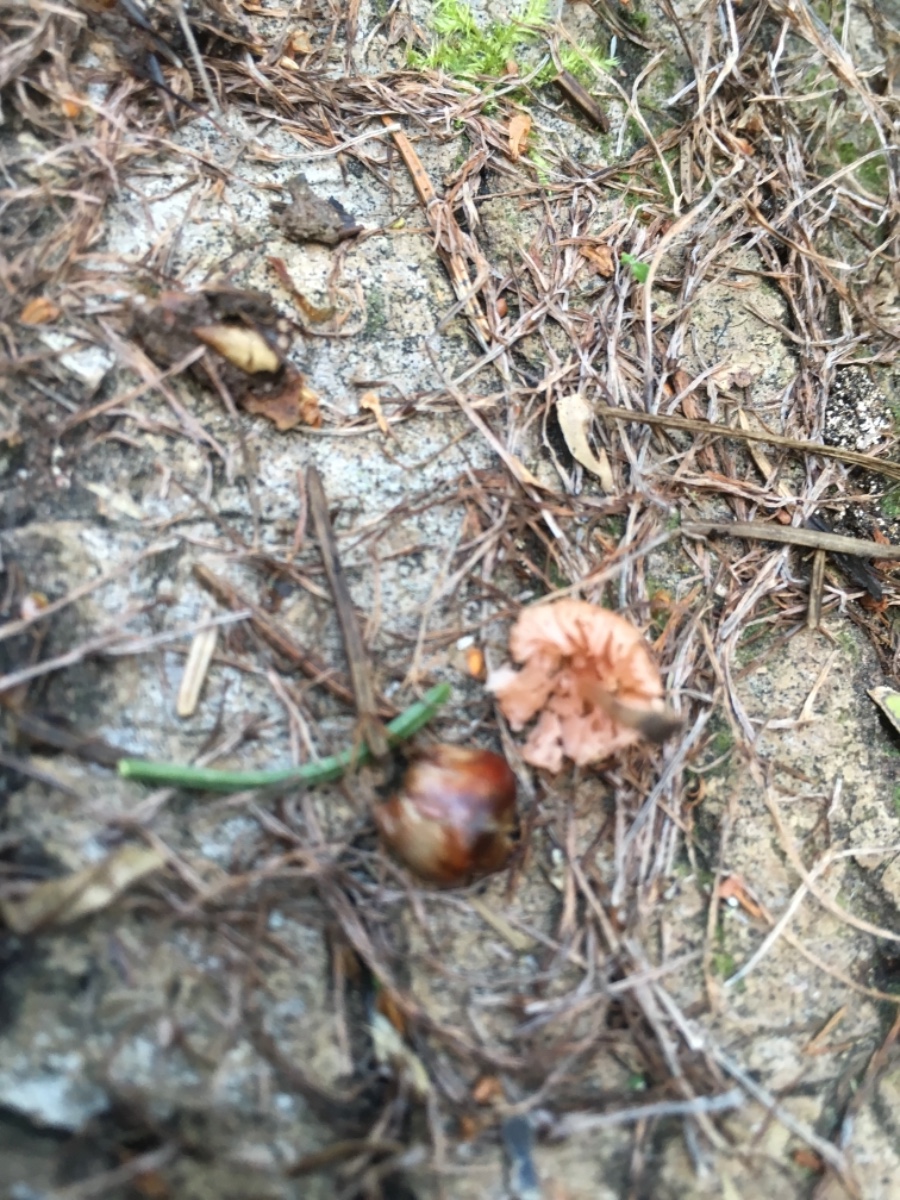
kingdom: Fungi
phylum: Basidiomycota
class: Agaricomycetes
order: Agaricales
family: Hydnangiaceae
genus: Laccaria
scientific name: Laccaria tortilis
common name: krybende ametysthat
